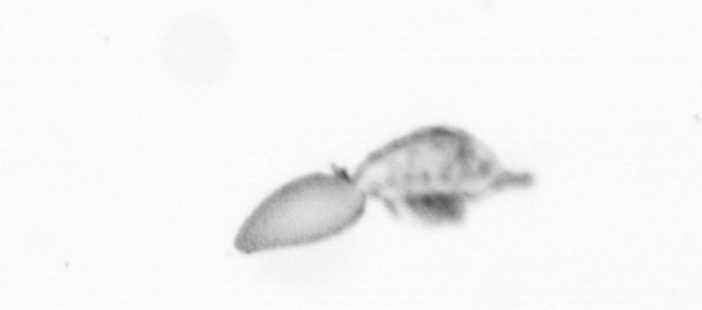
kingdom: Animalia
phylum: Arthropoda
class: Copepoda
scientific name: Copepoda
